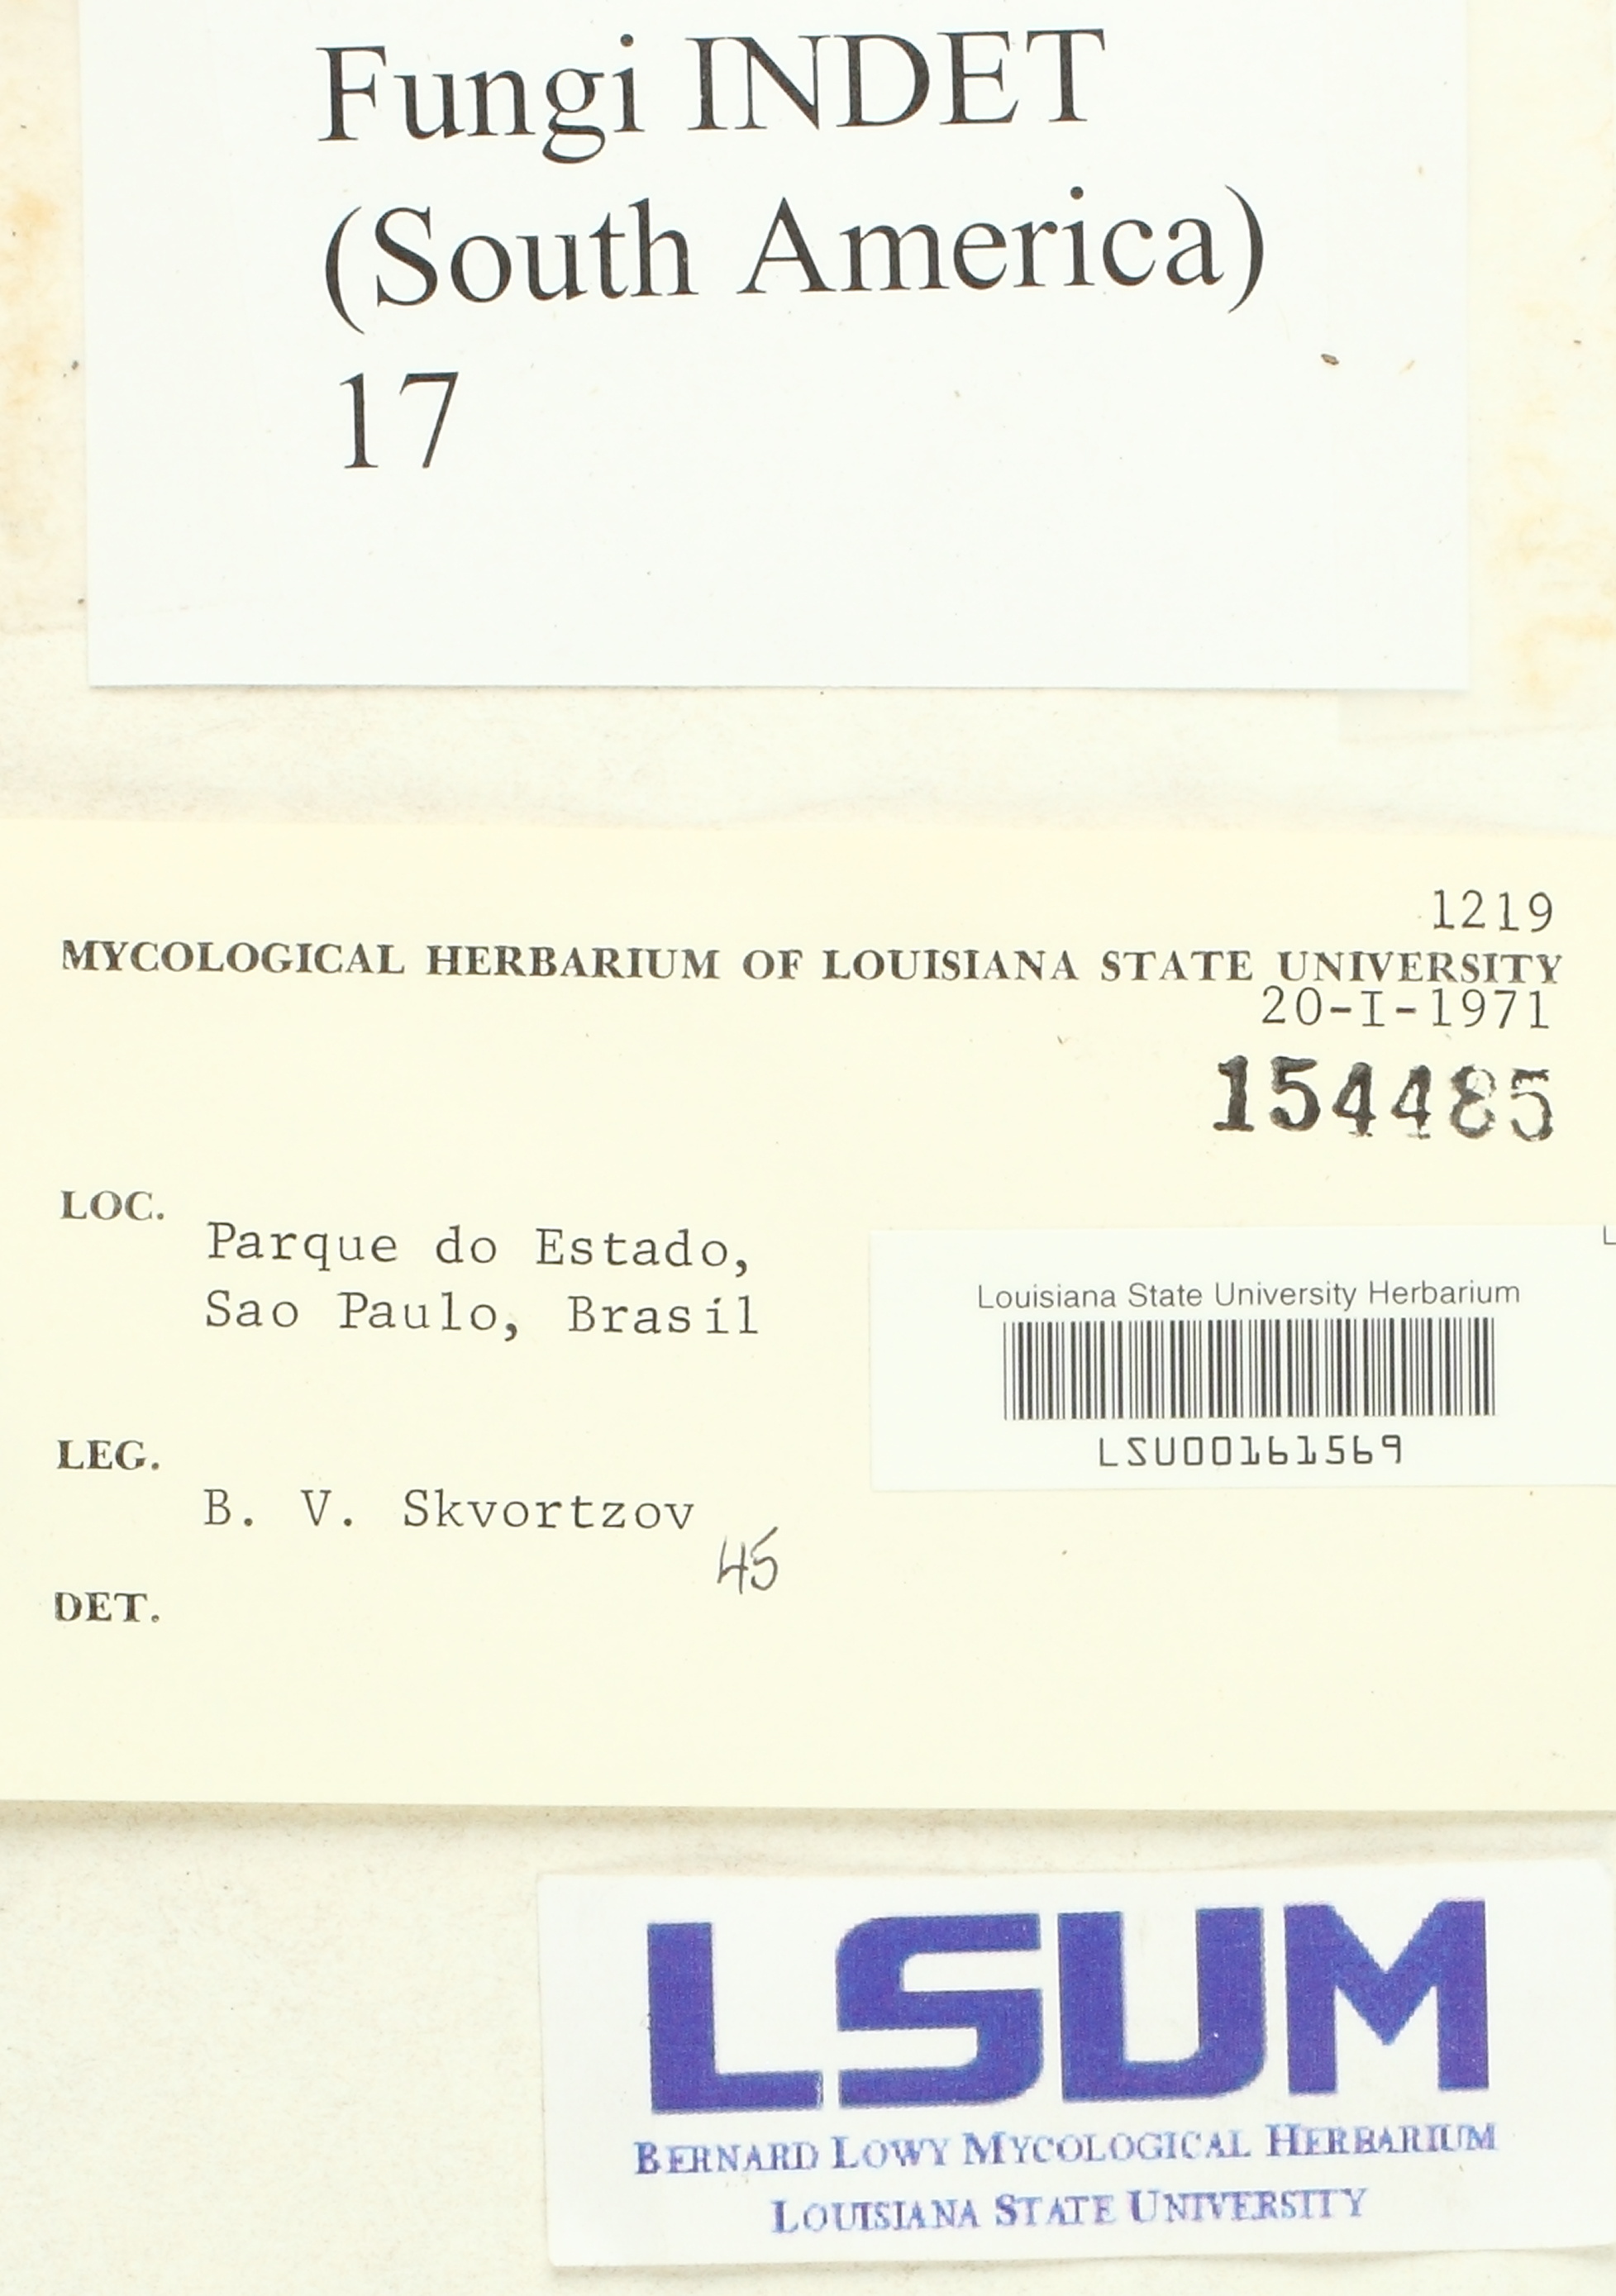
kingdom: Fungi
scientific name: Fungi
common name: Fungi
